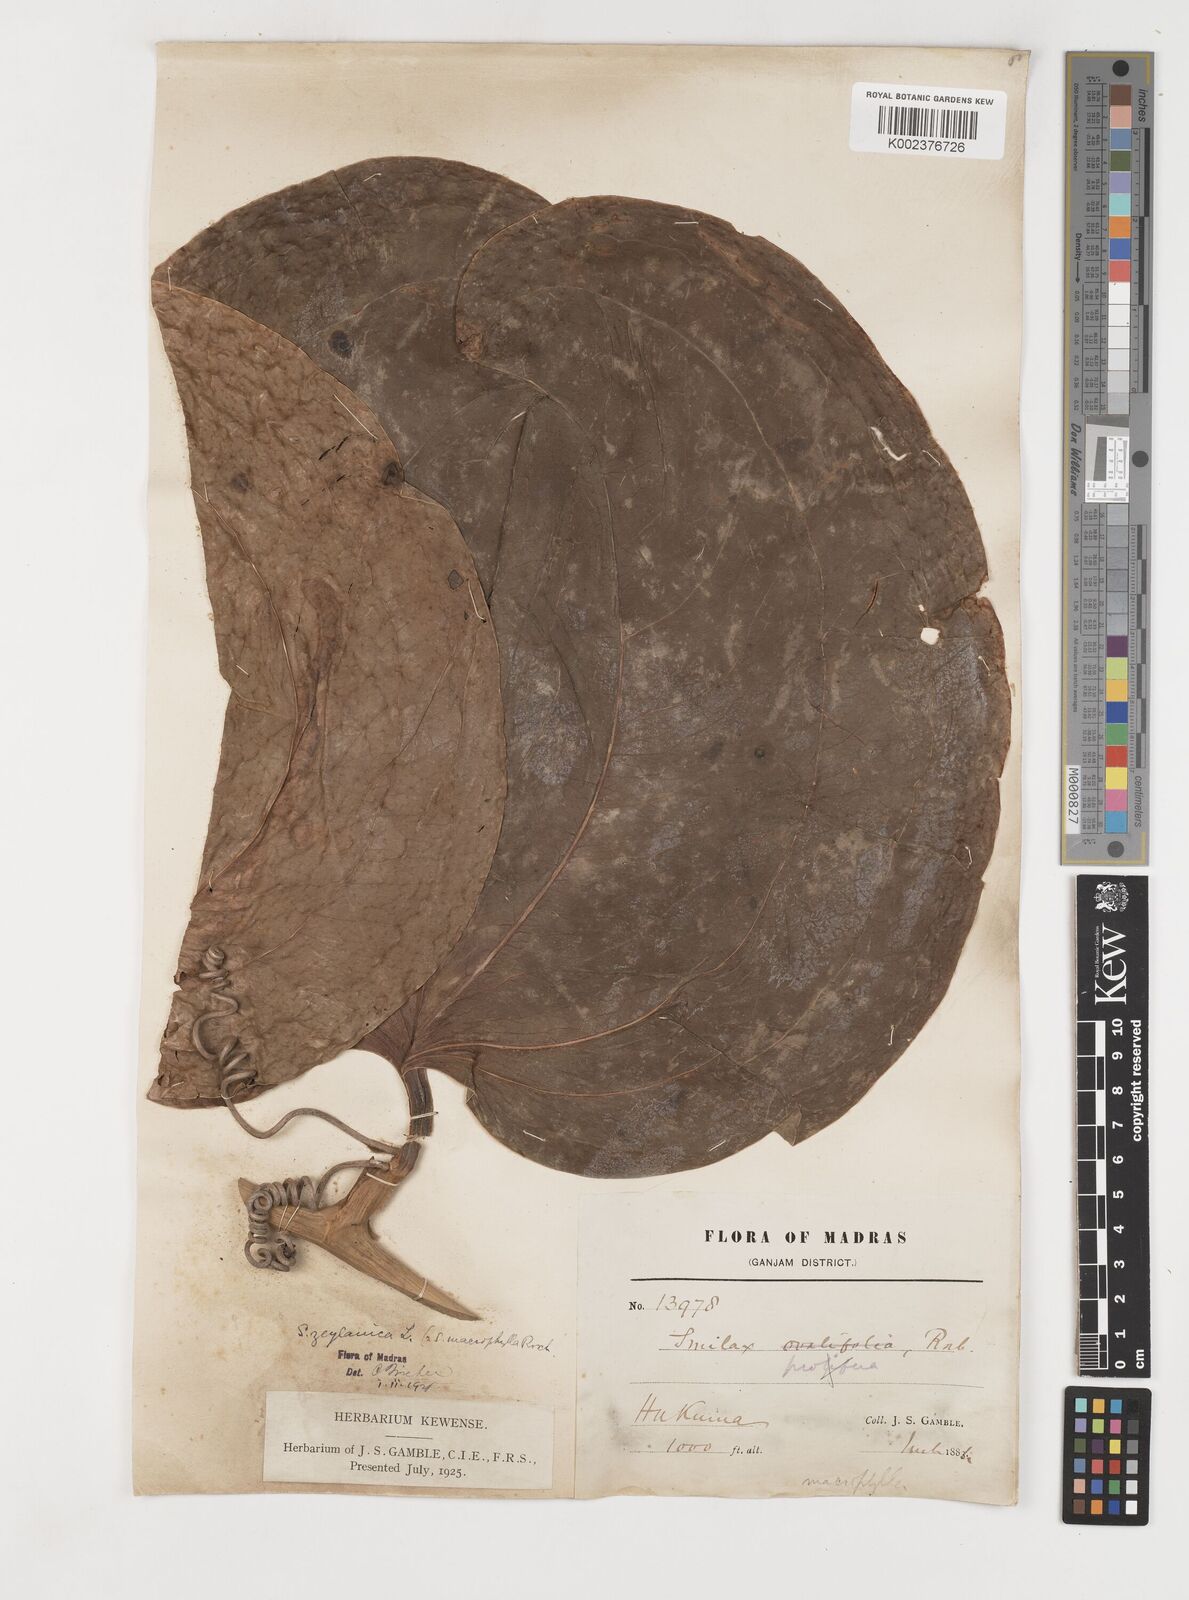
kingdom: Plantae
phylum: Tracheophyta
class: Liliopsida
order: Liliales
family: Smilacaceae
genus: Smilax
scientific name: Smilax zeylanica
